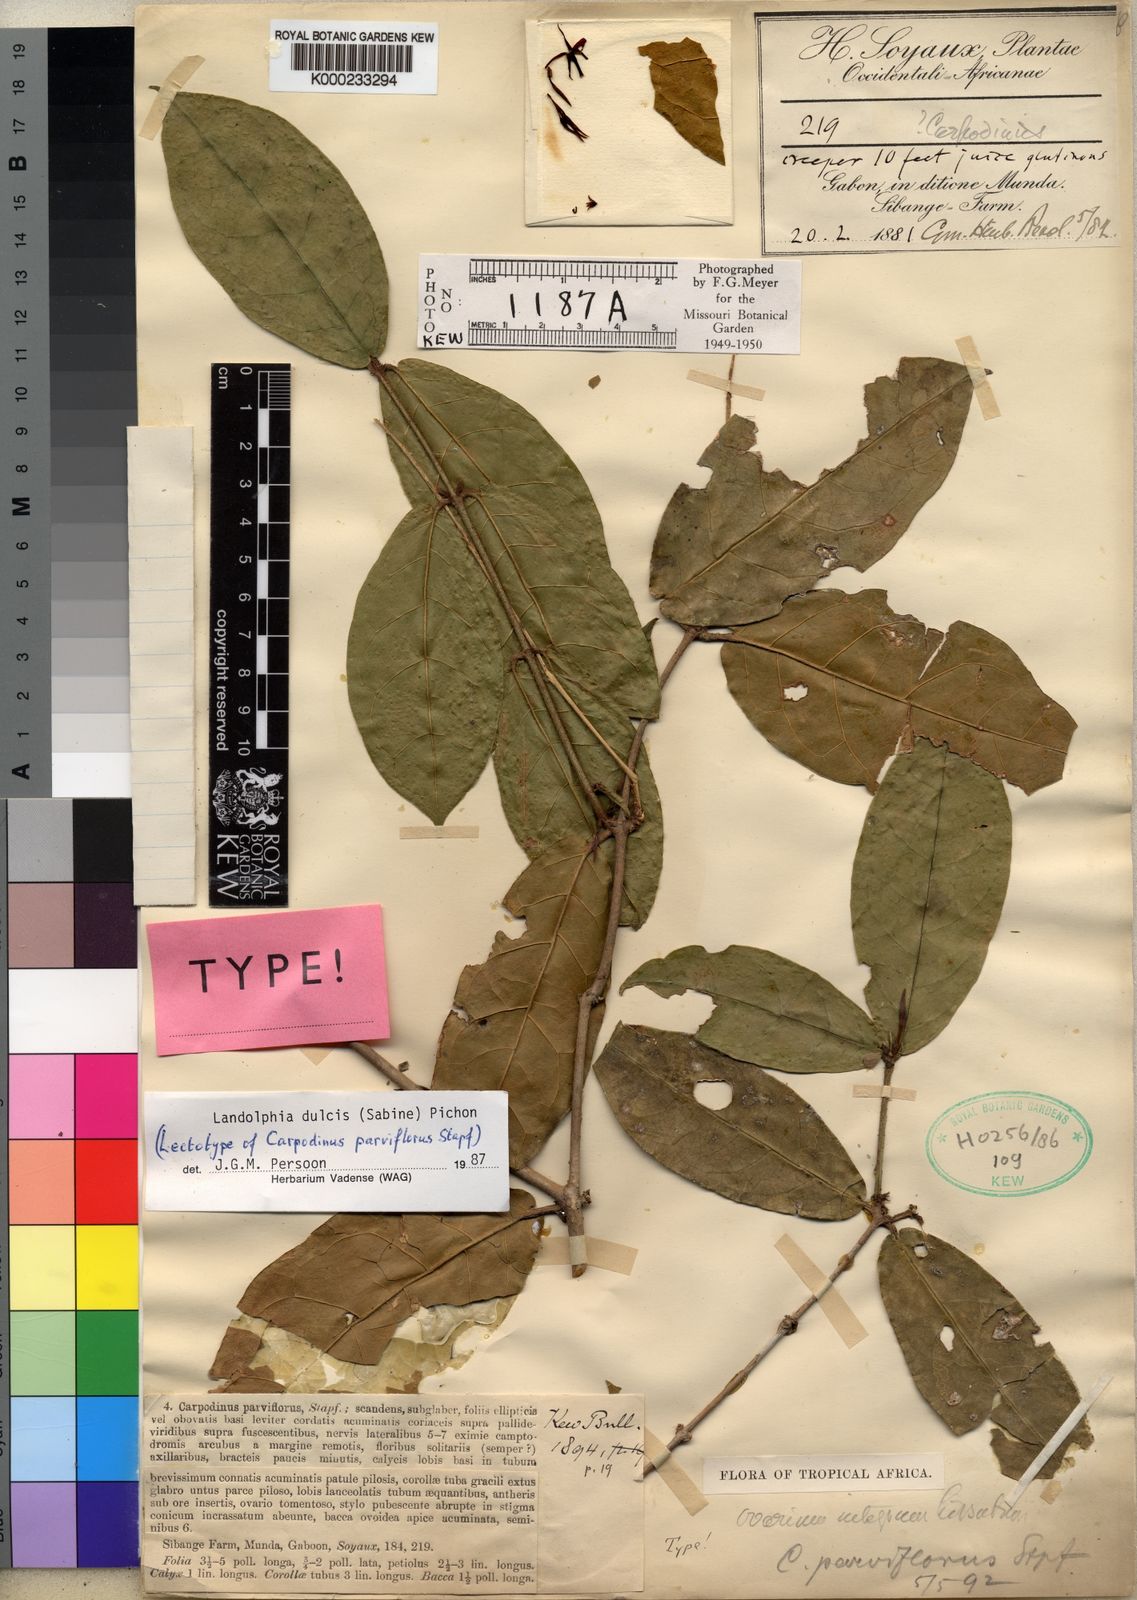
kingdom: Plantae
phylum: Tracheophyta
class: Magnoliopsida
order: Gentianales
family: Apocynaceae
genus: Landolphia
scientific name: Landolphia dulcis
